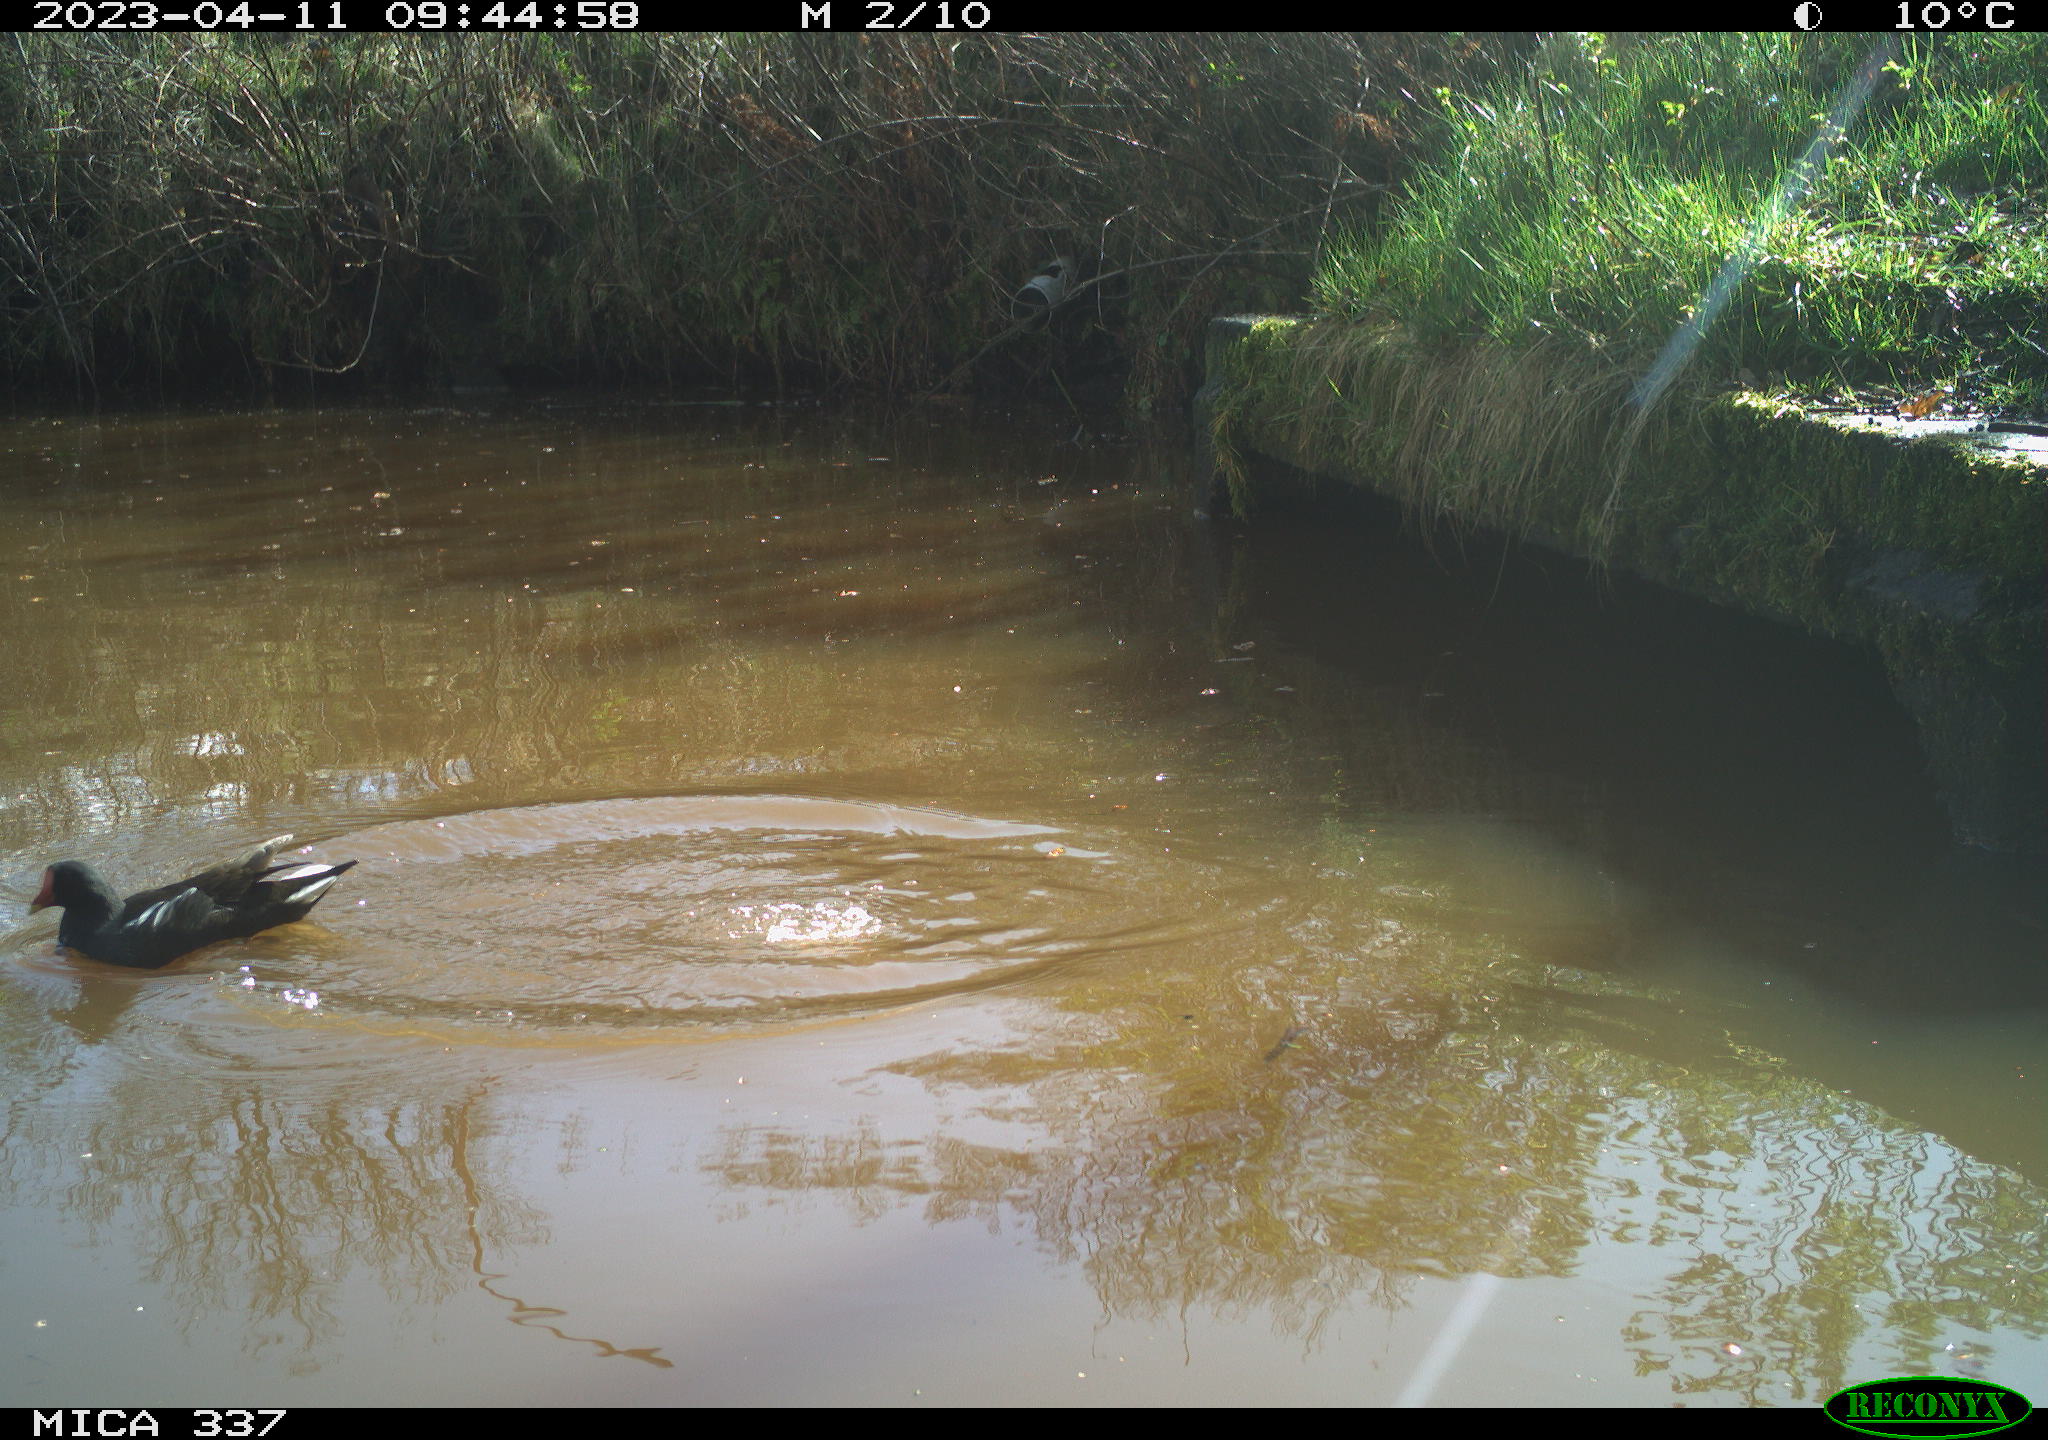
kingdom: Animalia
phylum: Chordata
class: Aves
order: Gruiformes
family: Rallidae
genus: Gallinula
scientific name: Gallinula chloropus
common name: Common moorhen
